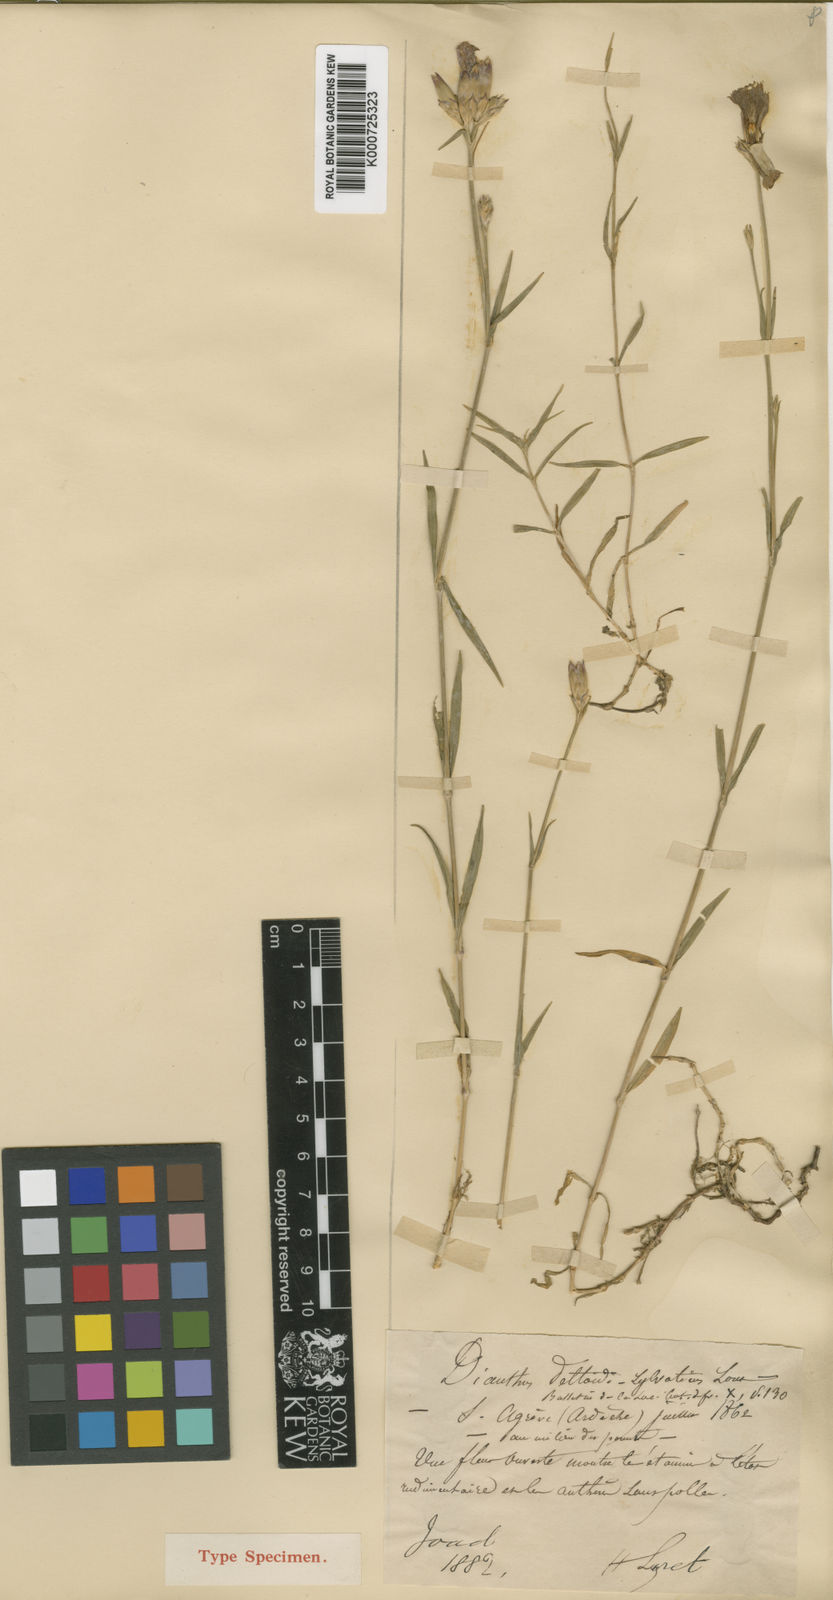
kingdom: Plantae
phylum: Tracheophyta
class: Magnoliopsida
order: Caryophyllales
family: Caryophyllaceae
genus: Dianthus
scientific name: Dianthus deltoides
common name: Maiden pink
